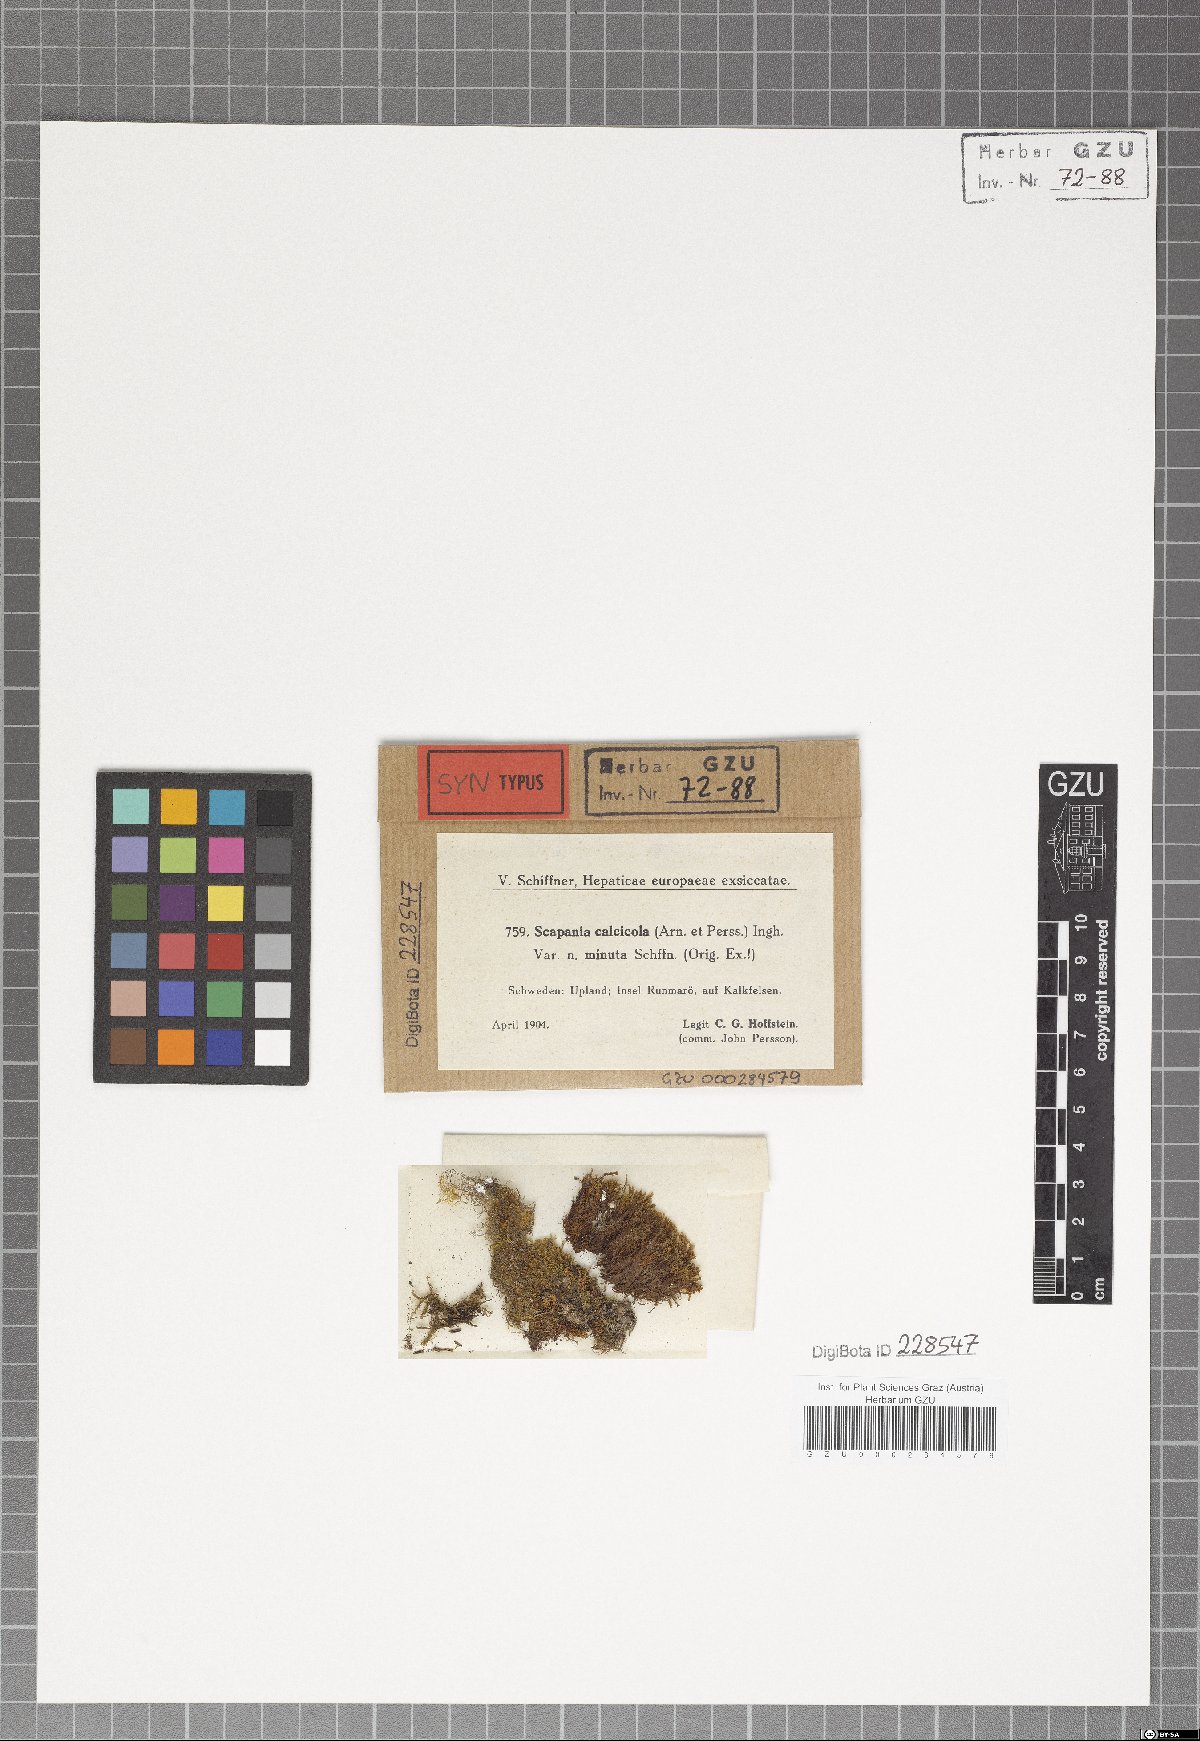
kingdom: Plantae
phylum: Marchantiophyta
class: Jungermanniopsida
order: Jungermanniales
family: Scapaniaceae
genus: Scapania
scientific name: Scapania calcicola
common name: Calcicolous earwort
